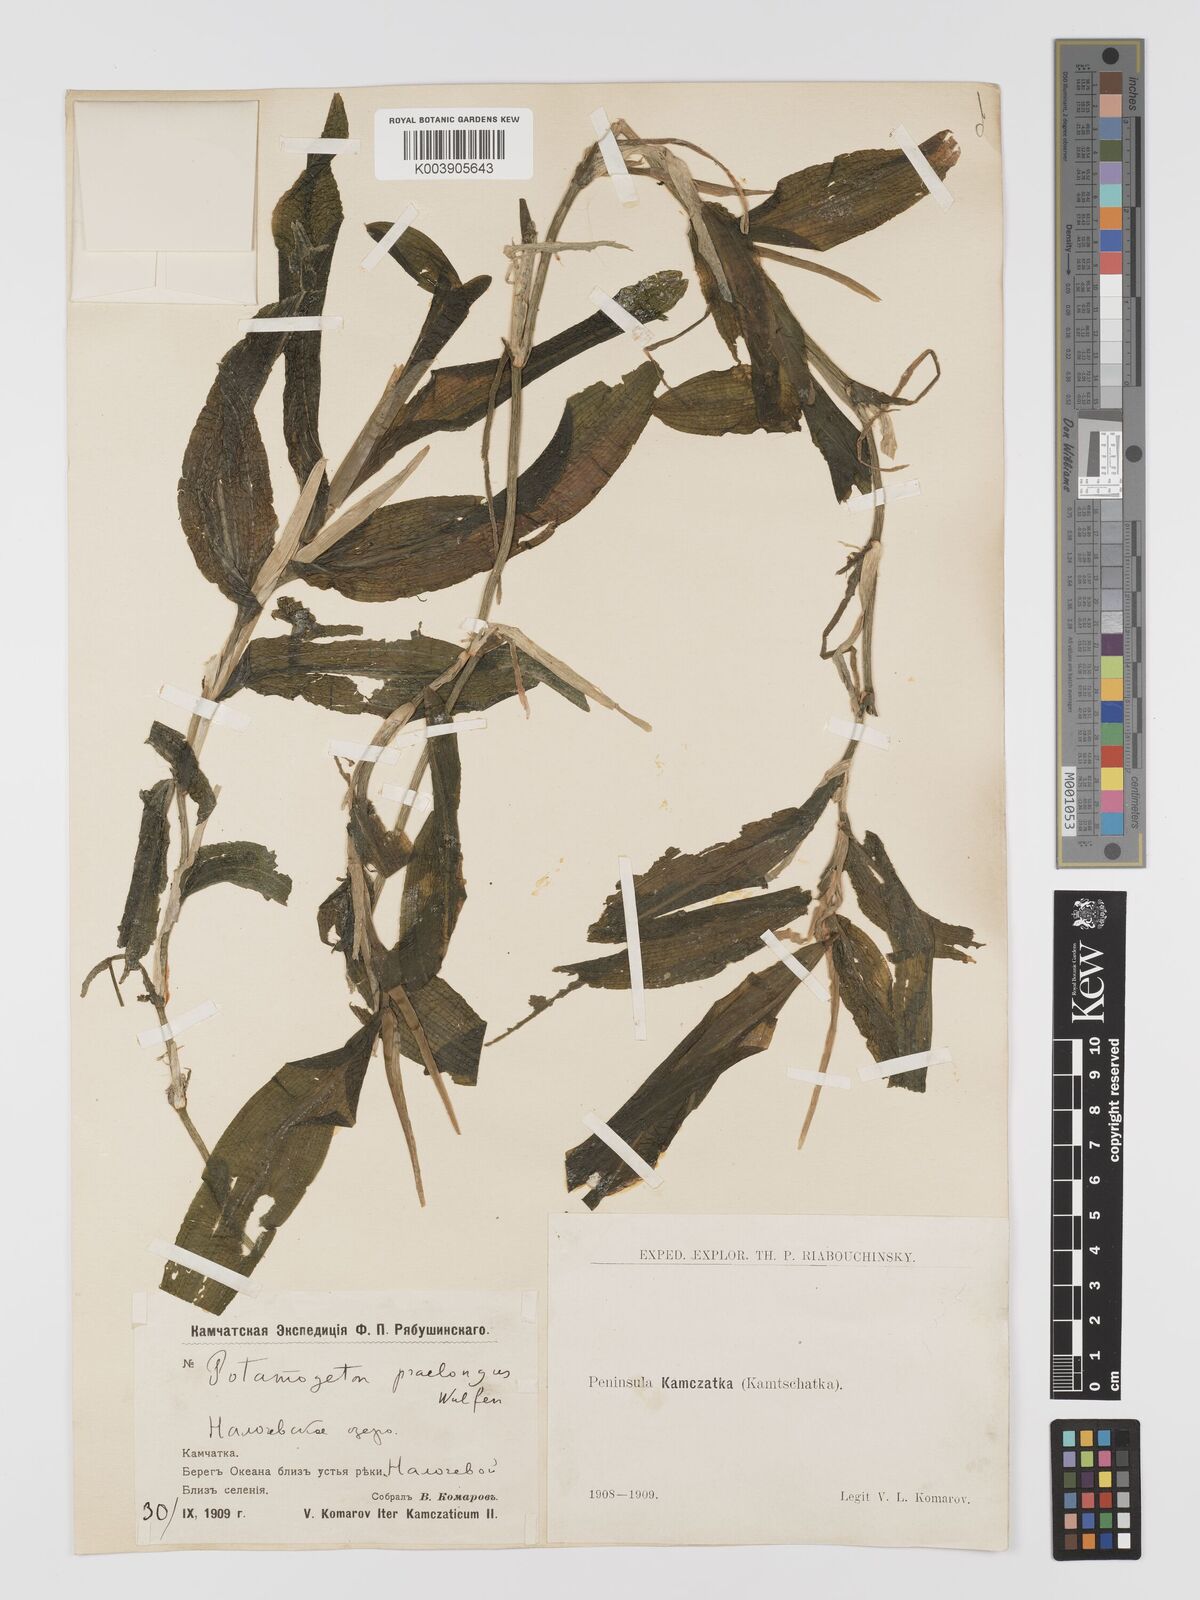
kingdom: Plantae
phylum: Tracheophyta
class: Liliopsida
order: Alismatales
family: Potamogetonaceae
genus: Potamogeton
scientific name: Potamogeton praelongus
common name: Long-stalked pondweed
